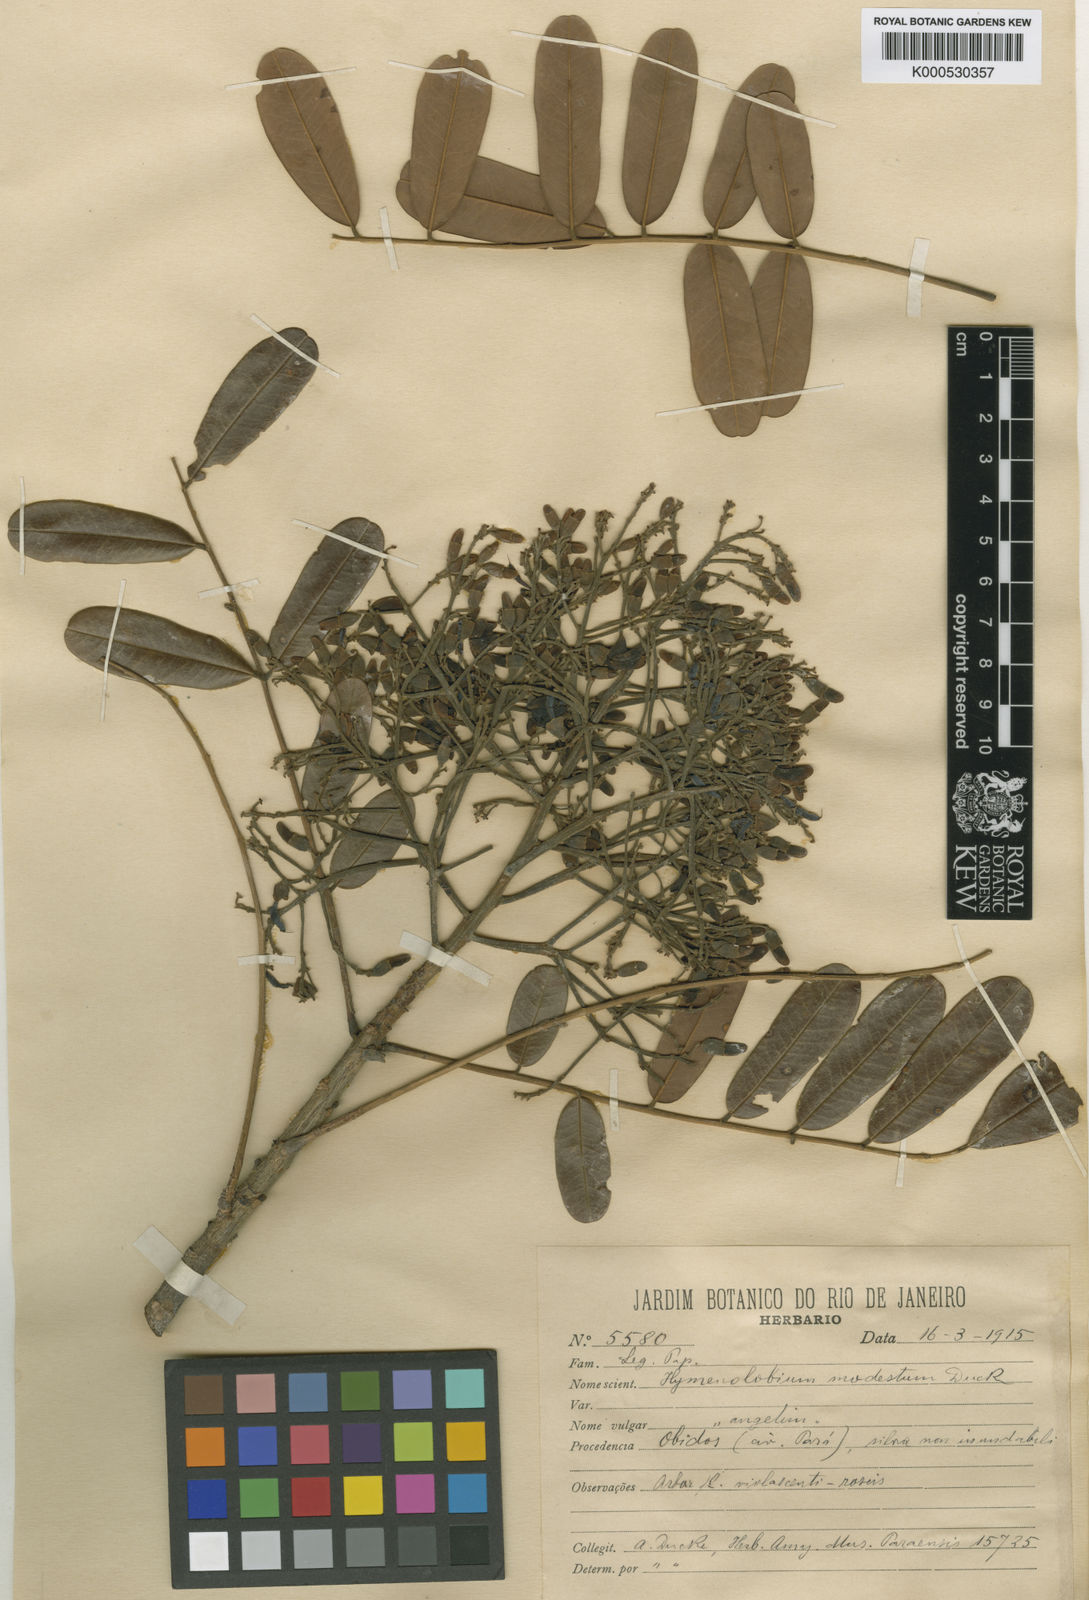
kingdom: Plantae
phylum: Tracheophyta
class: Magnoliopsida
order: Fabales
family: Fabaceae
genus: Hymenolobium
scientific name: Hymenolobium modestum
